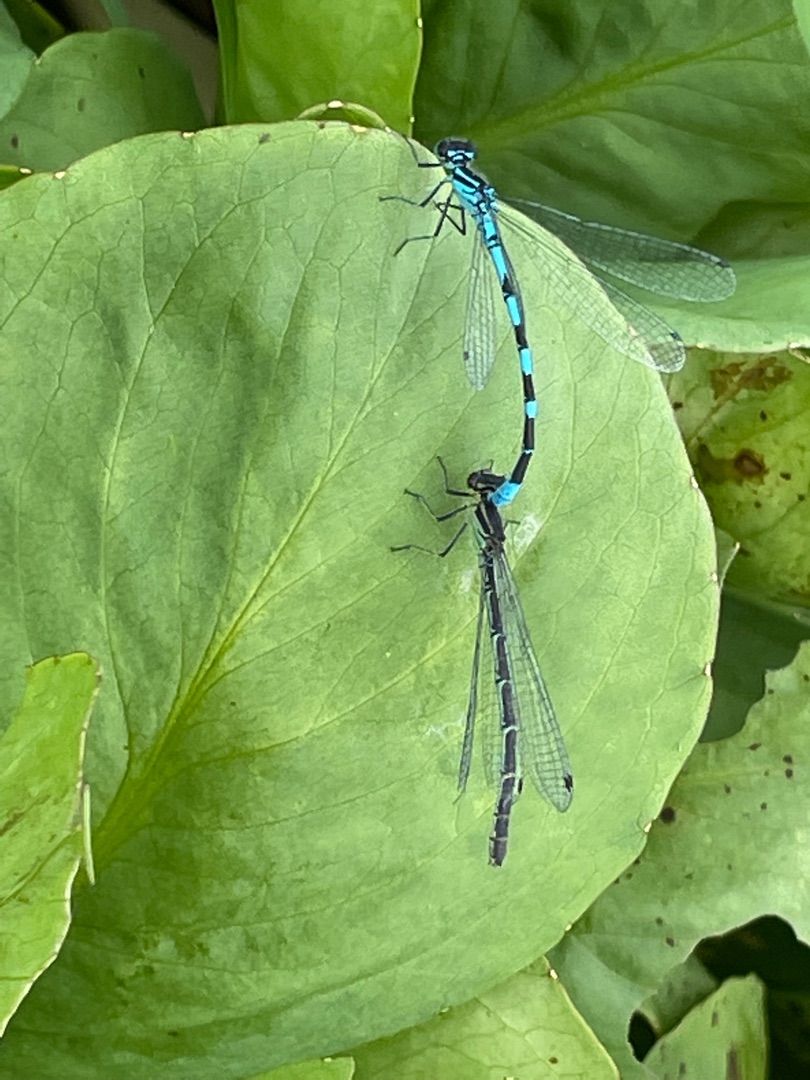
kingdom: Animalia
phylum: Arthropoda
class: Insecta
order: Odonata
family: Coenagrionidae
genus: Coenagrion
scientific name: Coenagrion hastulatum
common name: Spyd-vandnymfe
